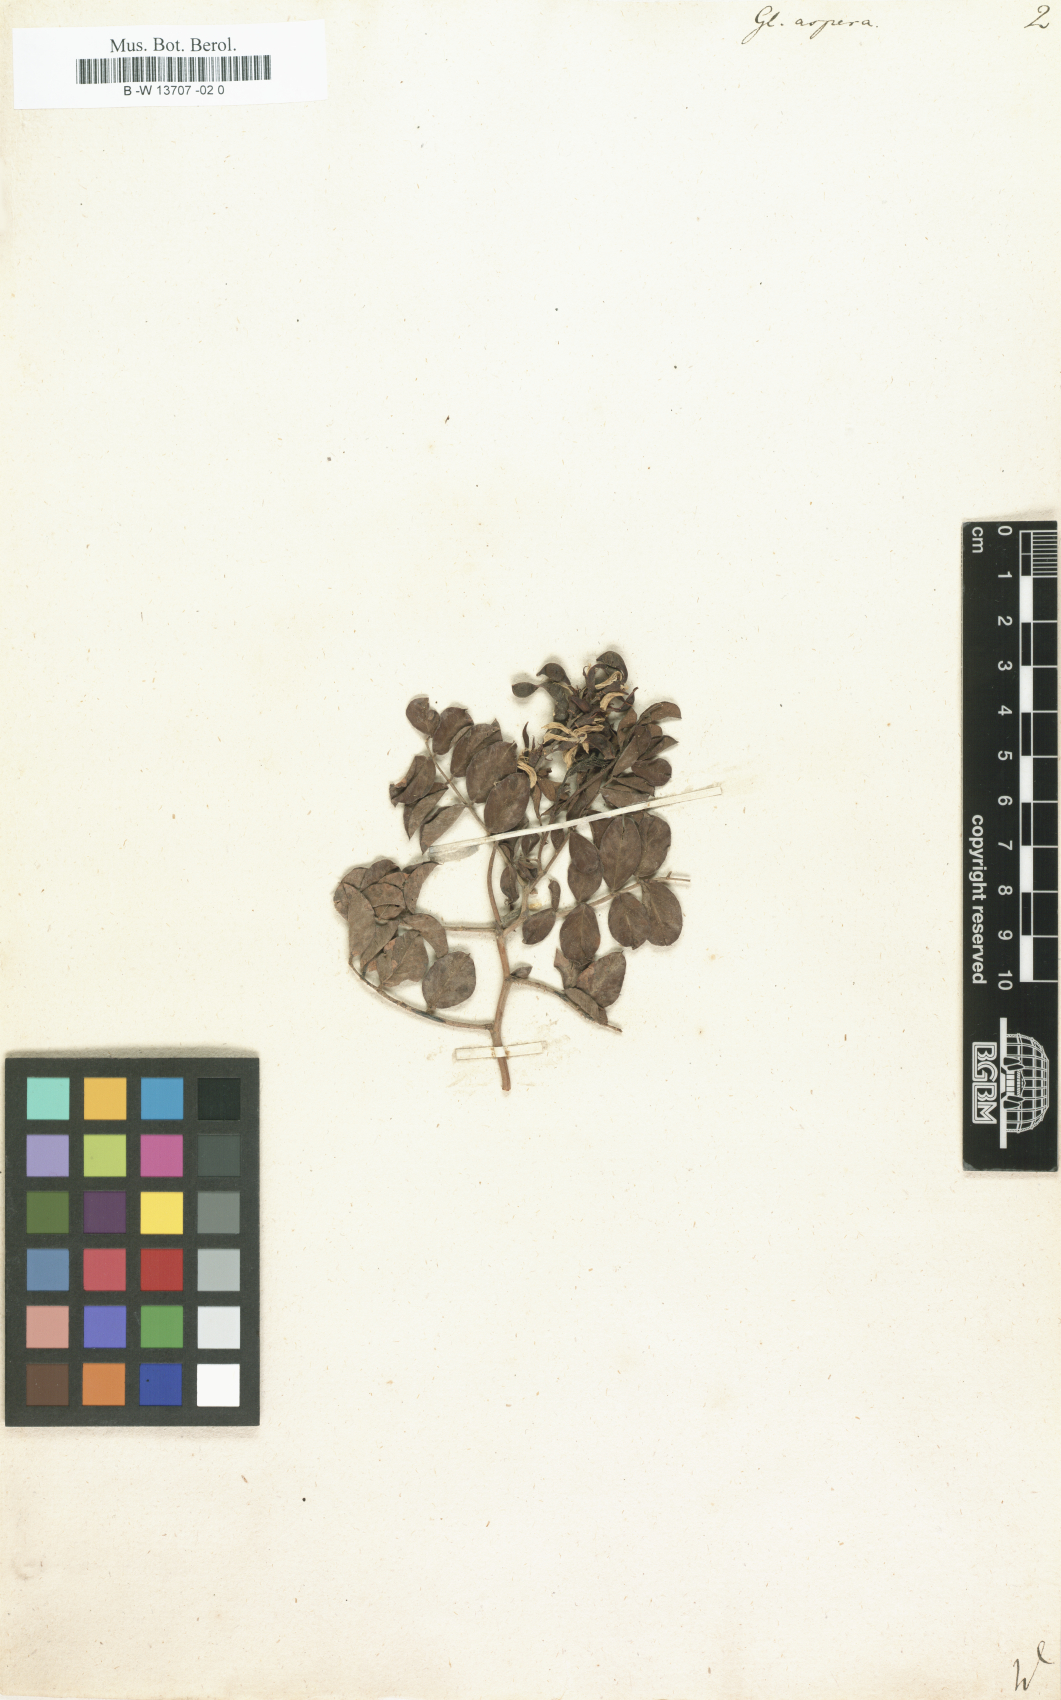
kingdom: Plantae
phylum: Tracheophyta
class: Magnoliopsida
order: Fabales
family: Fabaceae
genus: Glycyrrhiza
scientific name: Glycyrrhiza aspera
